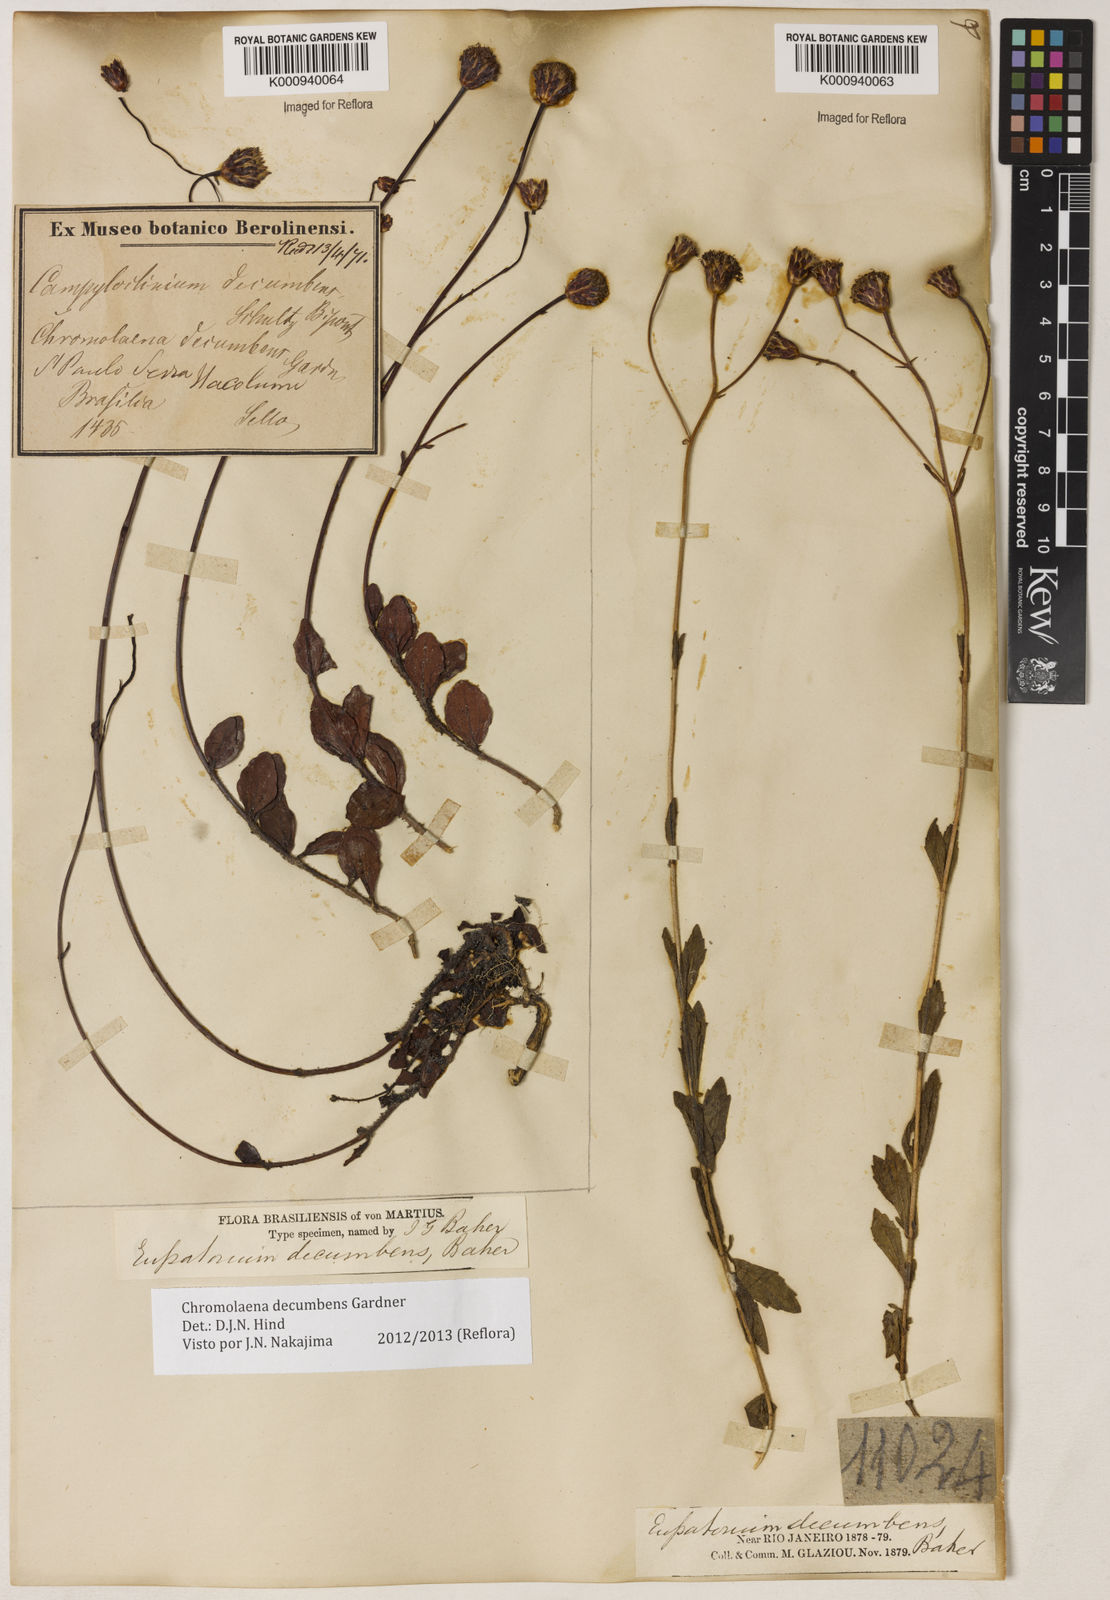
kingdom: Plantae
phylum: Tracheophyta
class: Magnoliopsida
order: Asterales
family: Asteraceae
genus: Praxelis
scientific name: Praxelis decumbens
